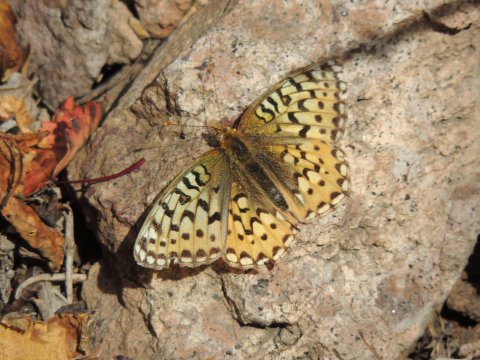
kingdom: Animalia
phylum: Arthropoda
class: Insecta
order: Lepidoptera
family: Nymphalidae
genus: Speyeria
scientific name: Speyeria coronis
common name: Coronis Fritillary
